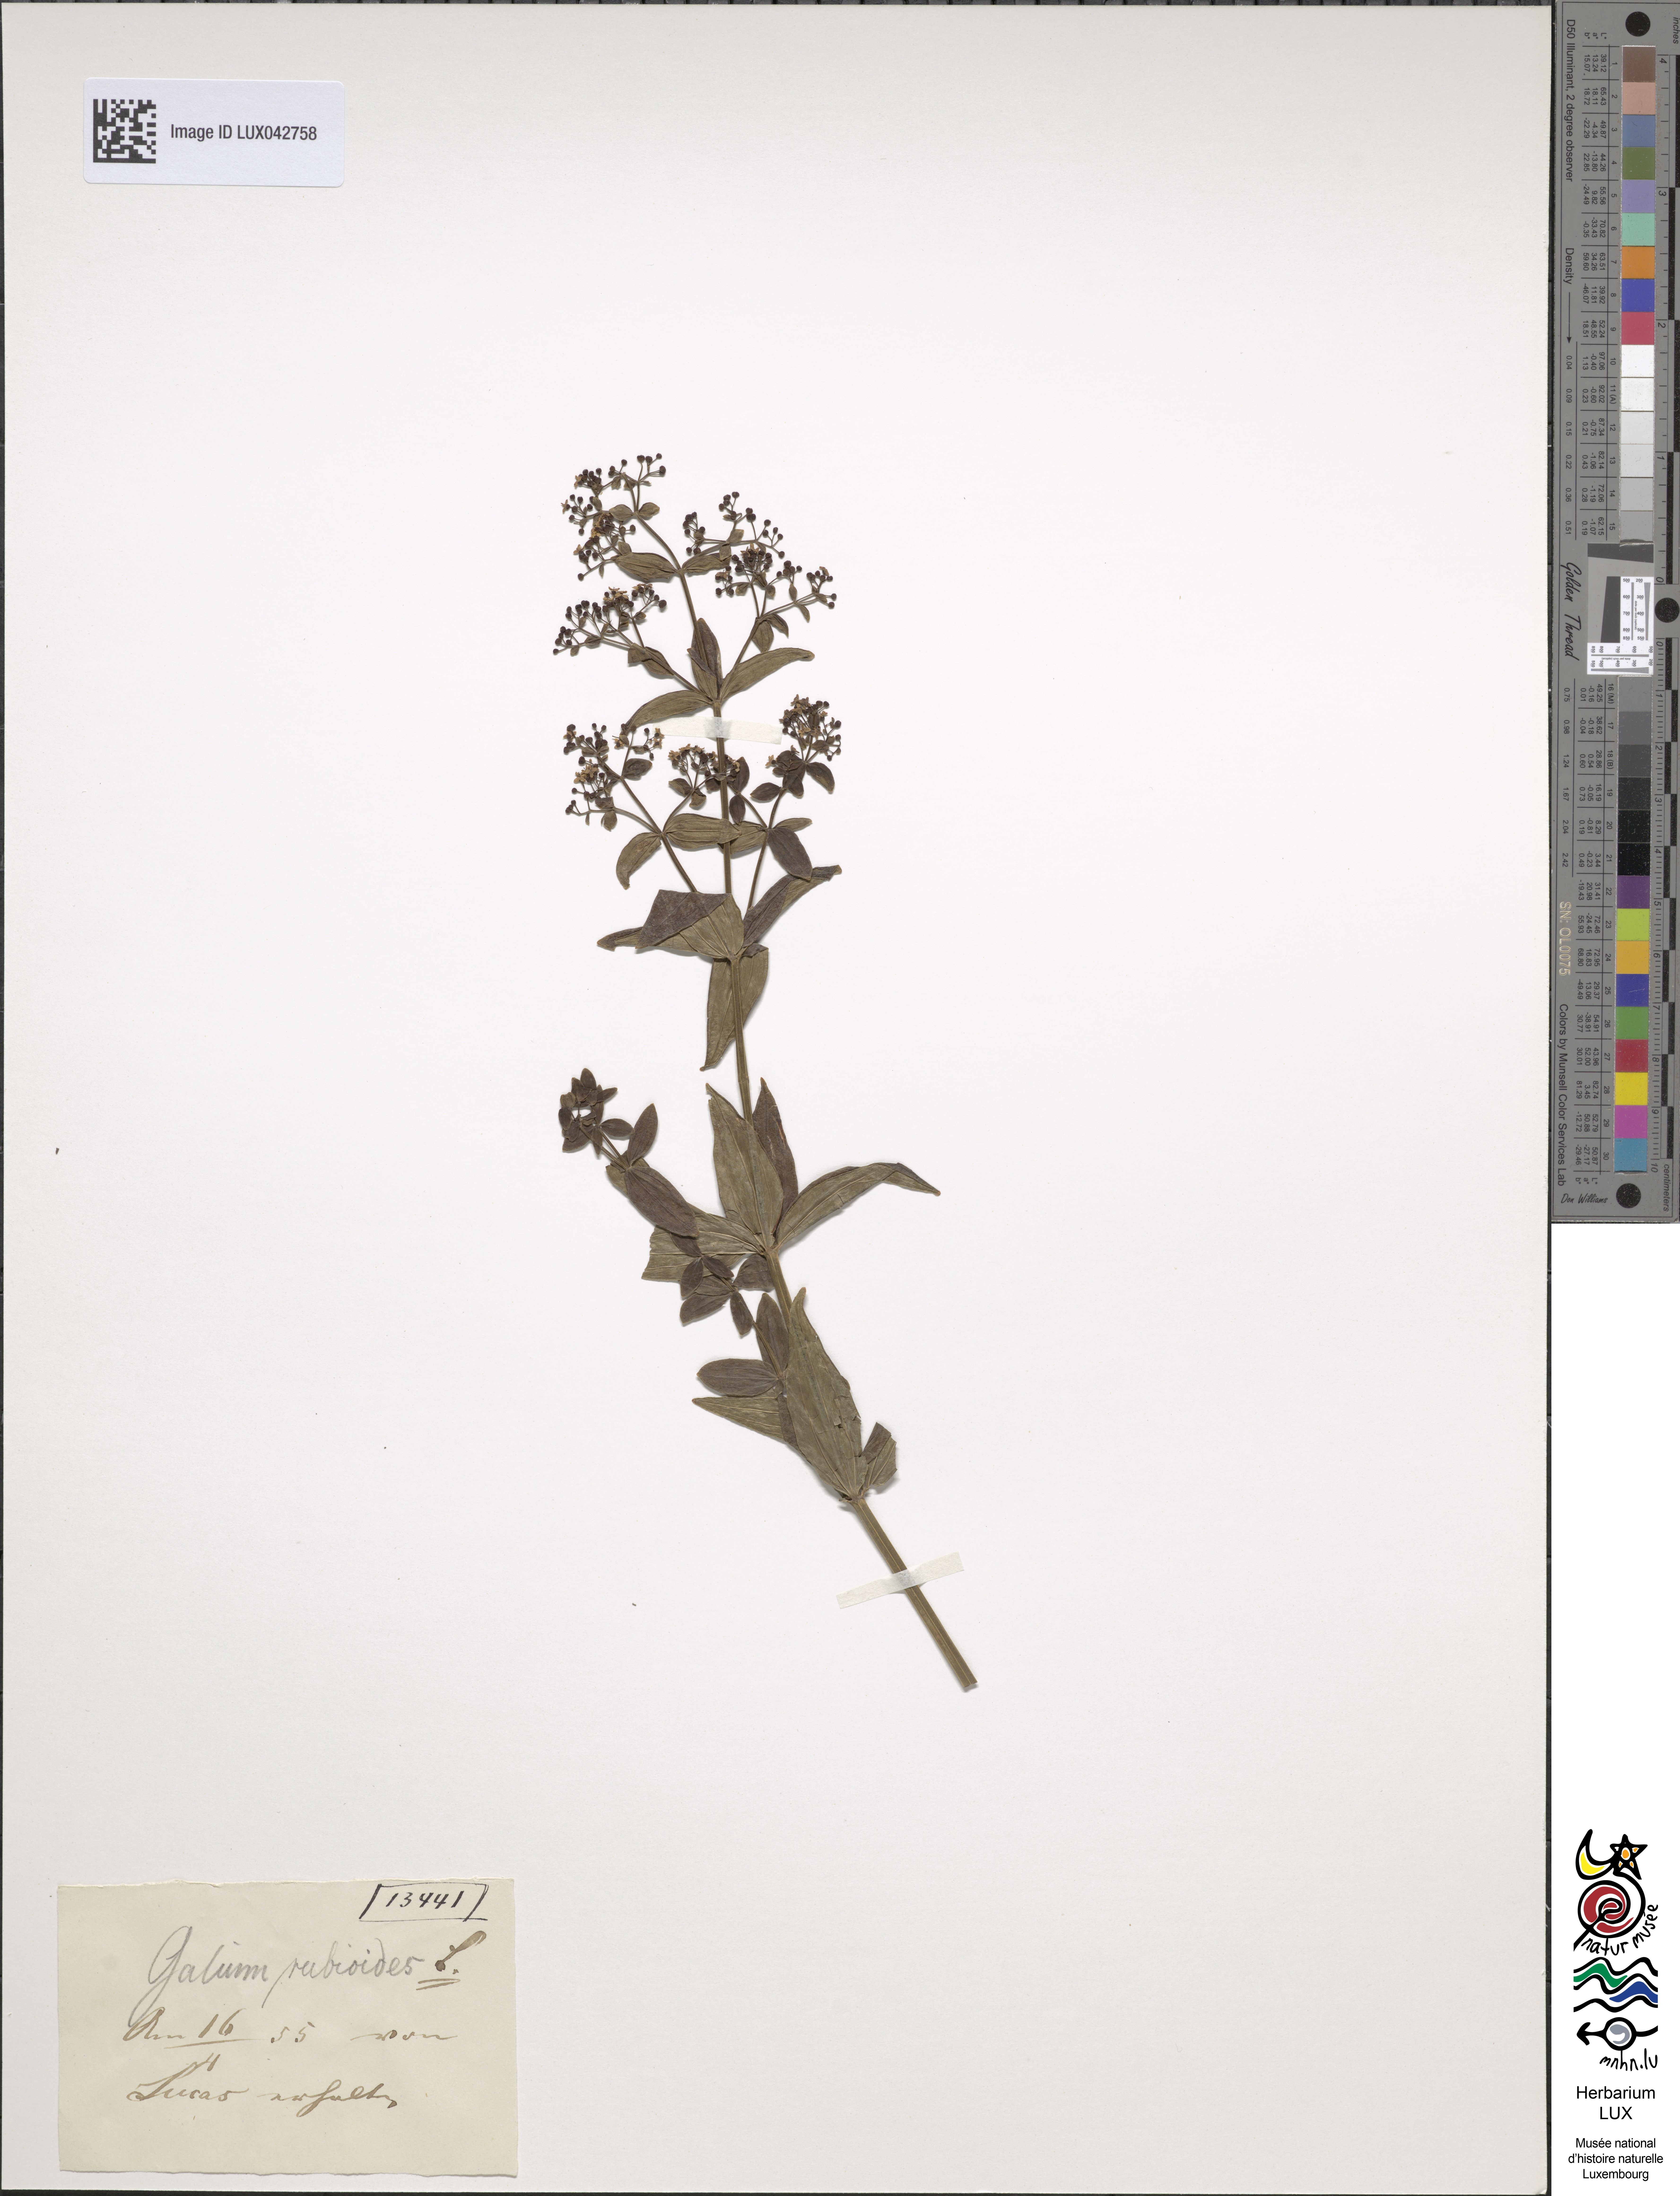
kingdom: Plantae
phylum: Tracheophyta
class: Magnoliopsida
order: Gentianales
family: Rubiaceae
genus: Galium
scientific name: Galium rubioides
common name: European bedstraw
